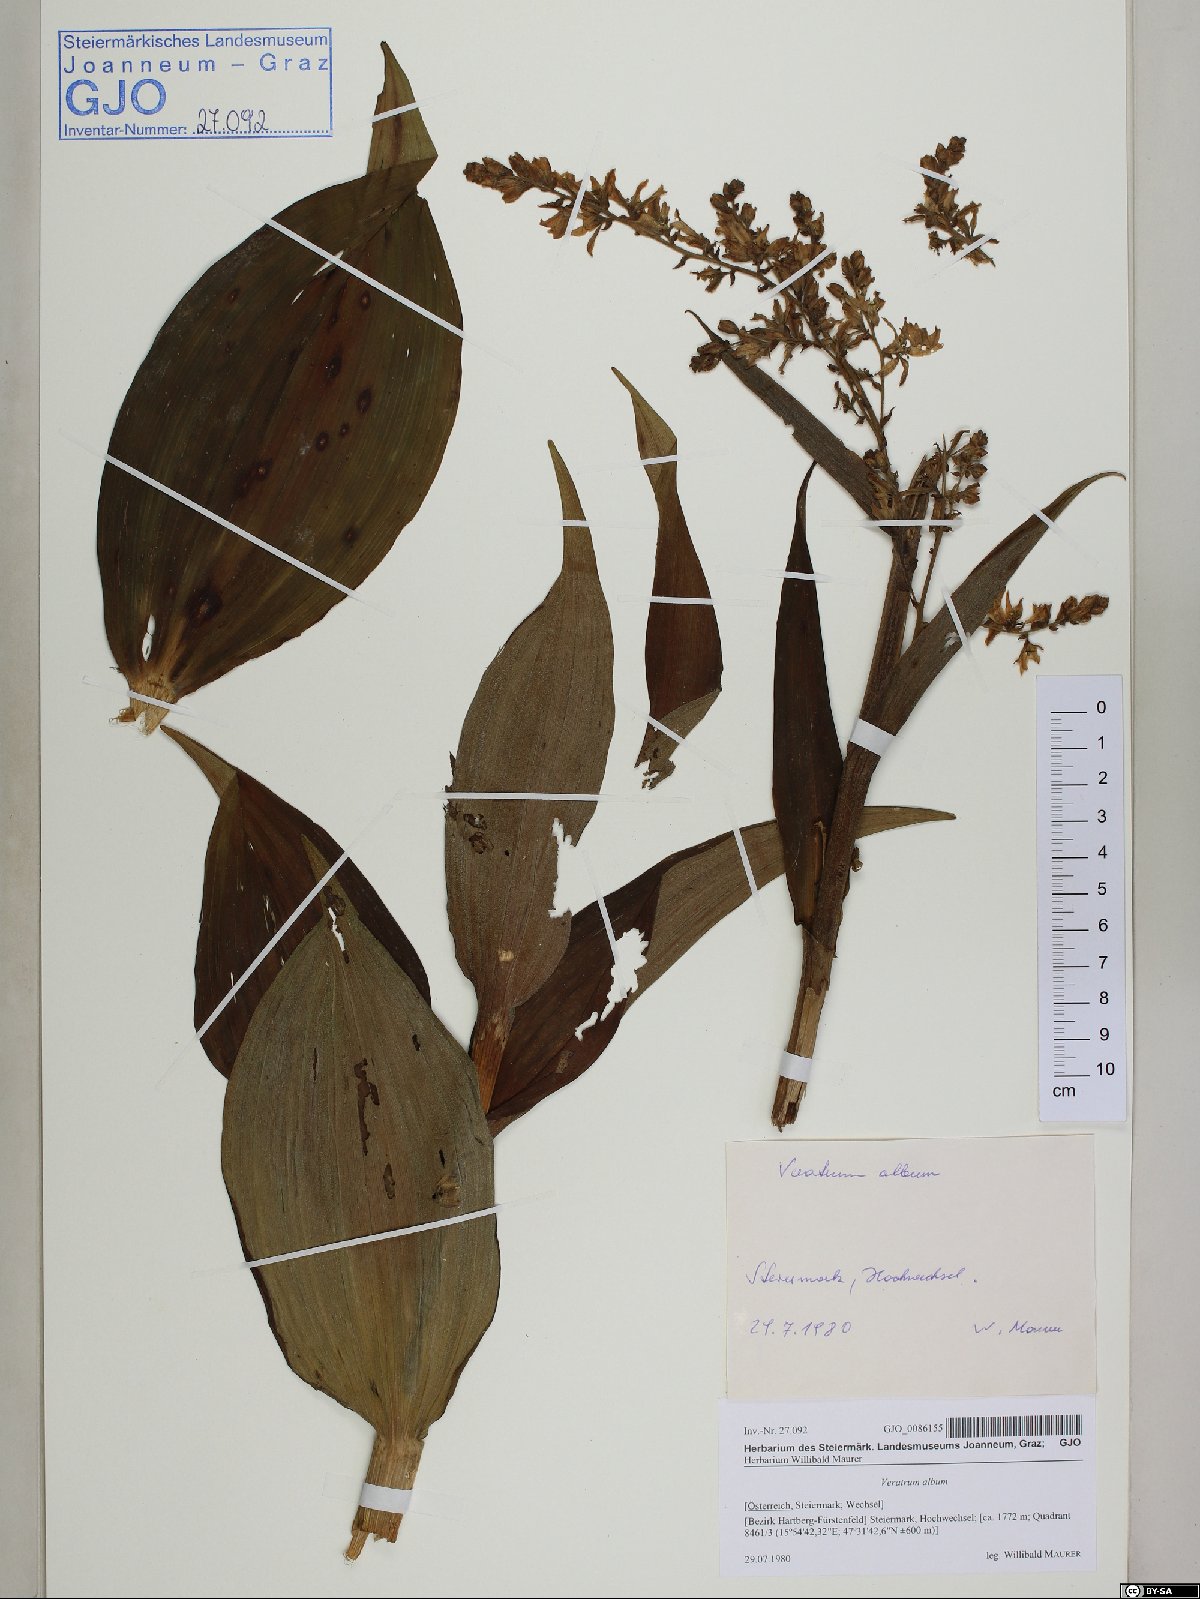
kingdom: Plantae
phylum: Tracheophyta
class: Liliopsida
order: Liliales
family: Melanthiaceae
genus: Veratrum
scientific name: Veratrum album
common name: White veratrum
